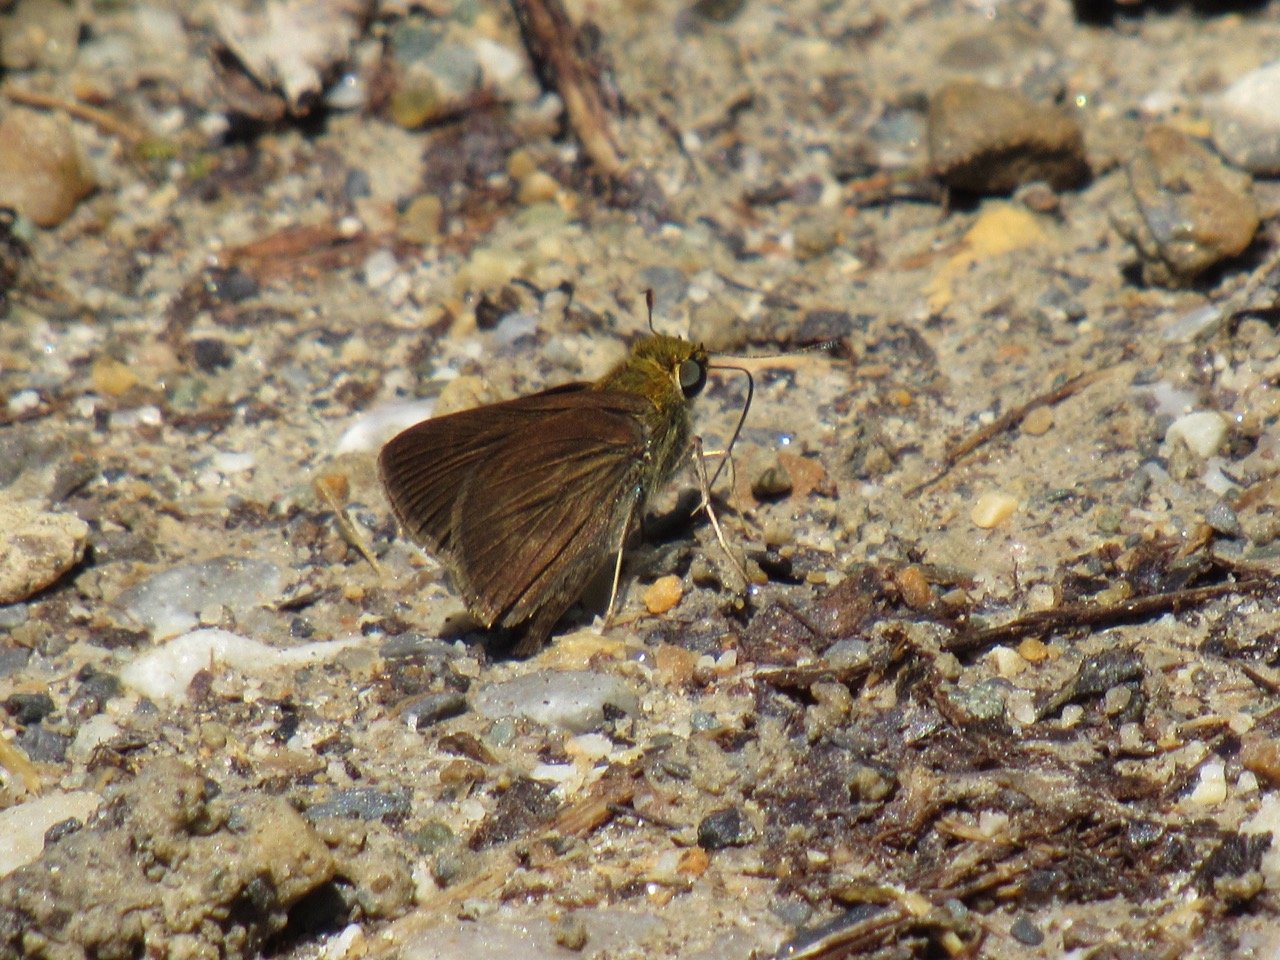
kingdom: Animalia
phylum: Arthropoda
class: Insecta
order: Lepidoptera
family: Hesperiidae
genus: Euphyes
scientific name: Euphyes vestris
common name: Dun Skipper
